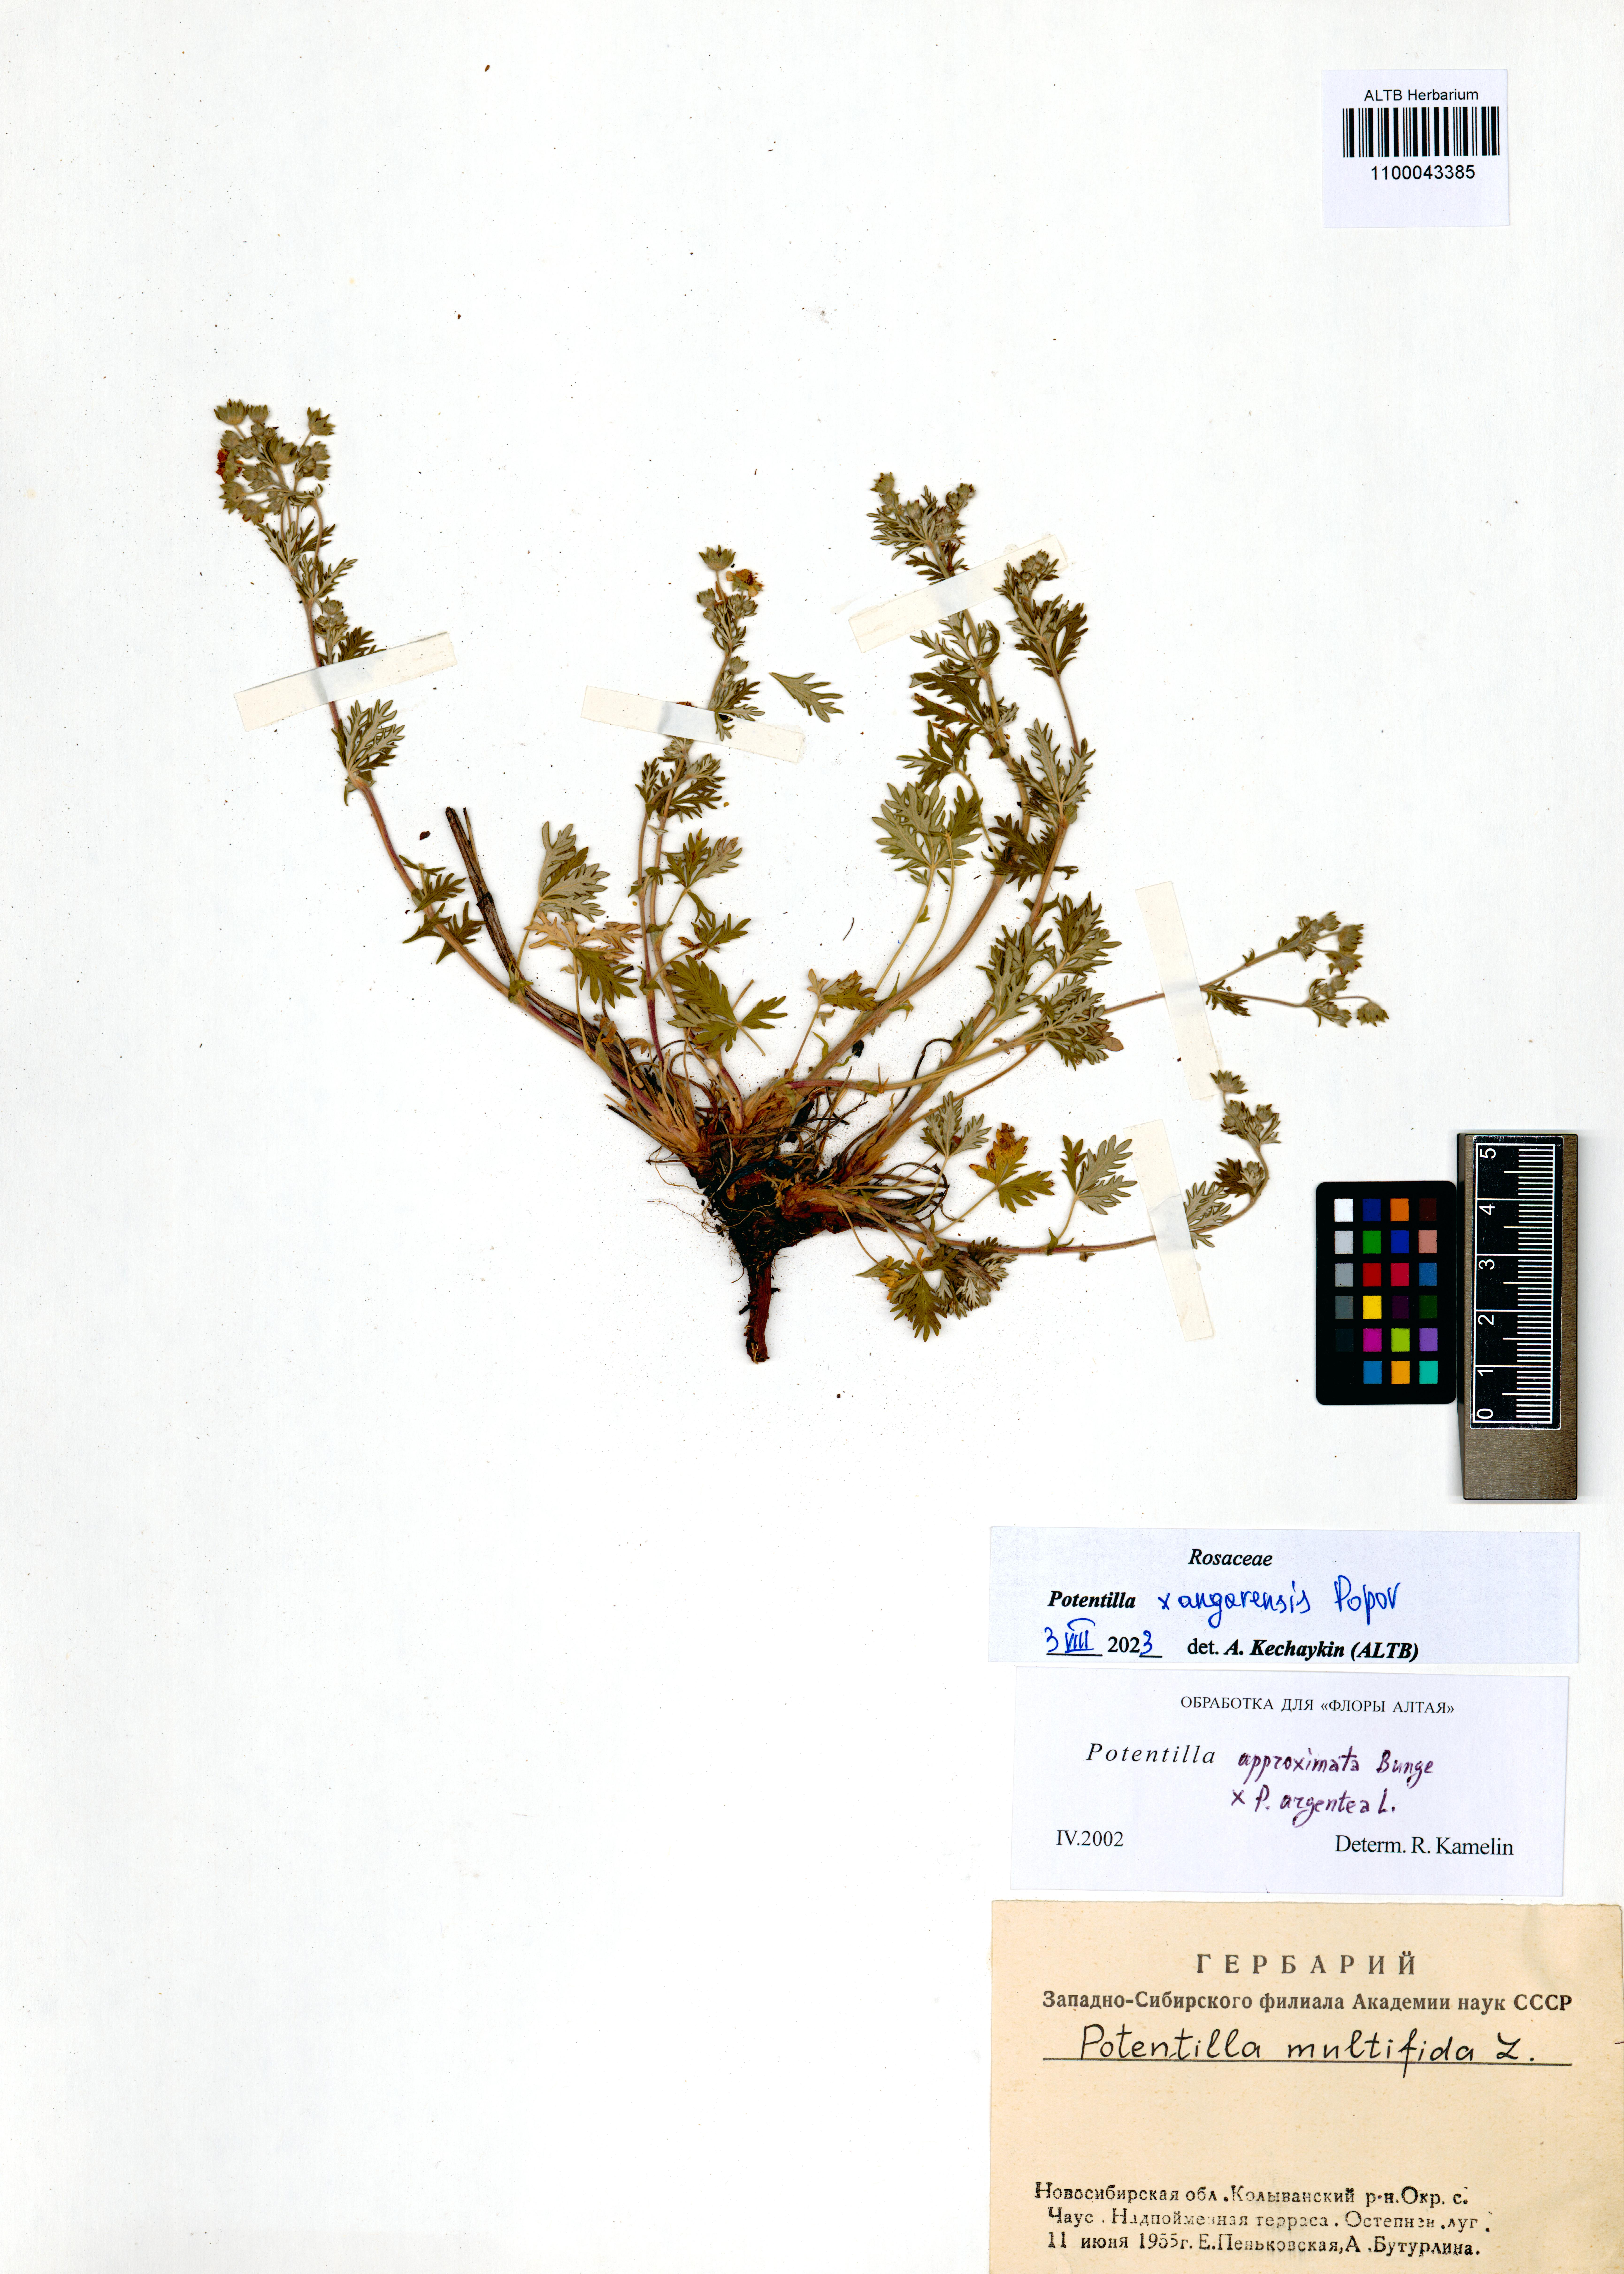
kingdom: Plantae
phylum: Tracheophyta
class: Magnoliopsida
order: Rosales
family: Rosaceae
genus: Potentilla
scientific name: Potentilla angarensis
